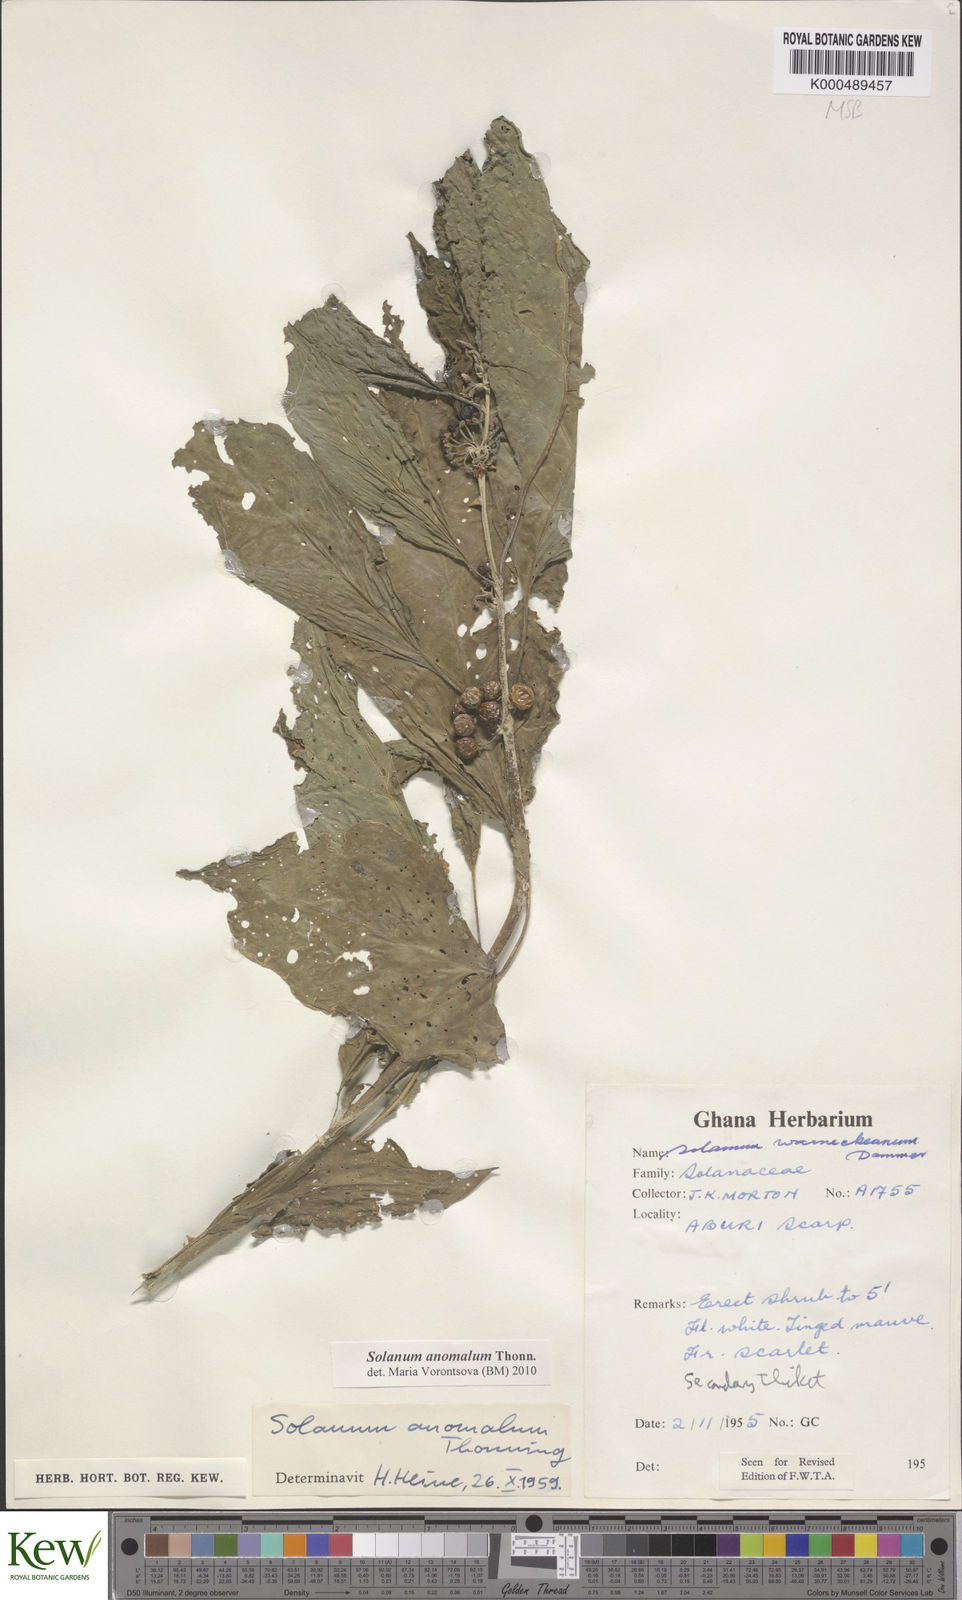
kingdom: Plantae
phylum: Tracheophyta
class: Magnoliopsida
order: Solanales
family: Solanaceae
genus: Solanum
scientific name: Solanum anomalum
